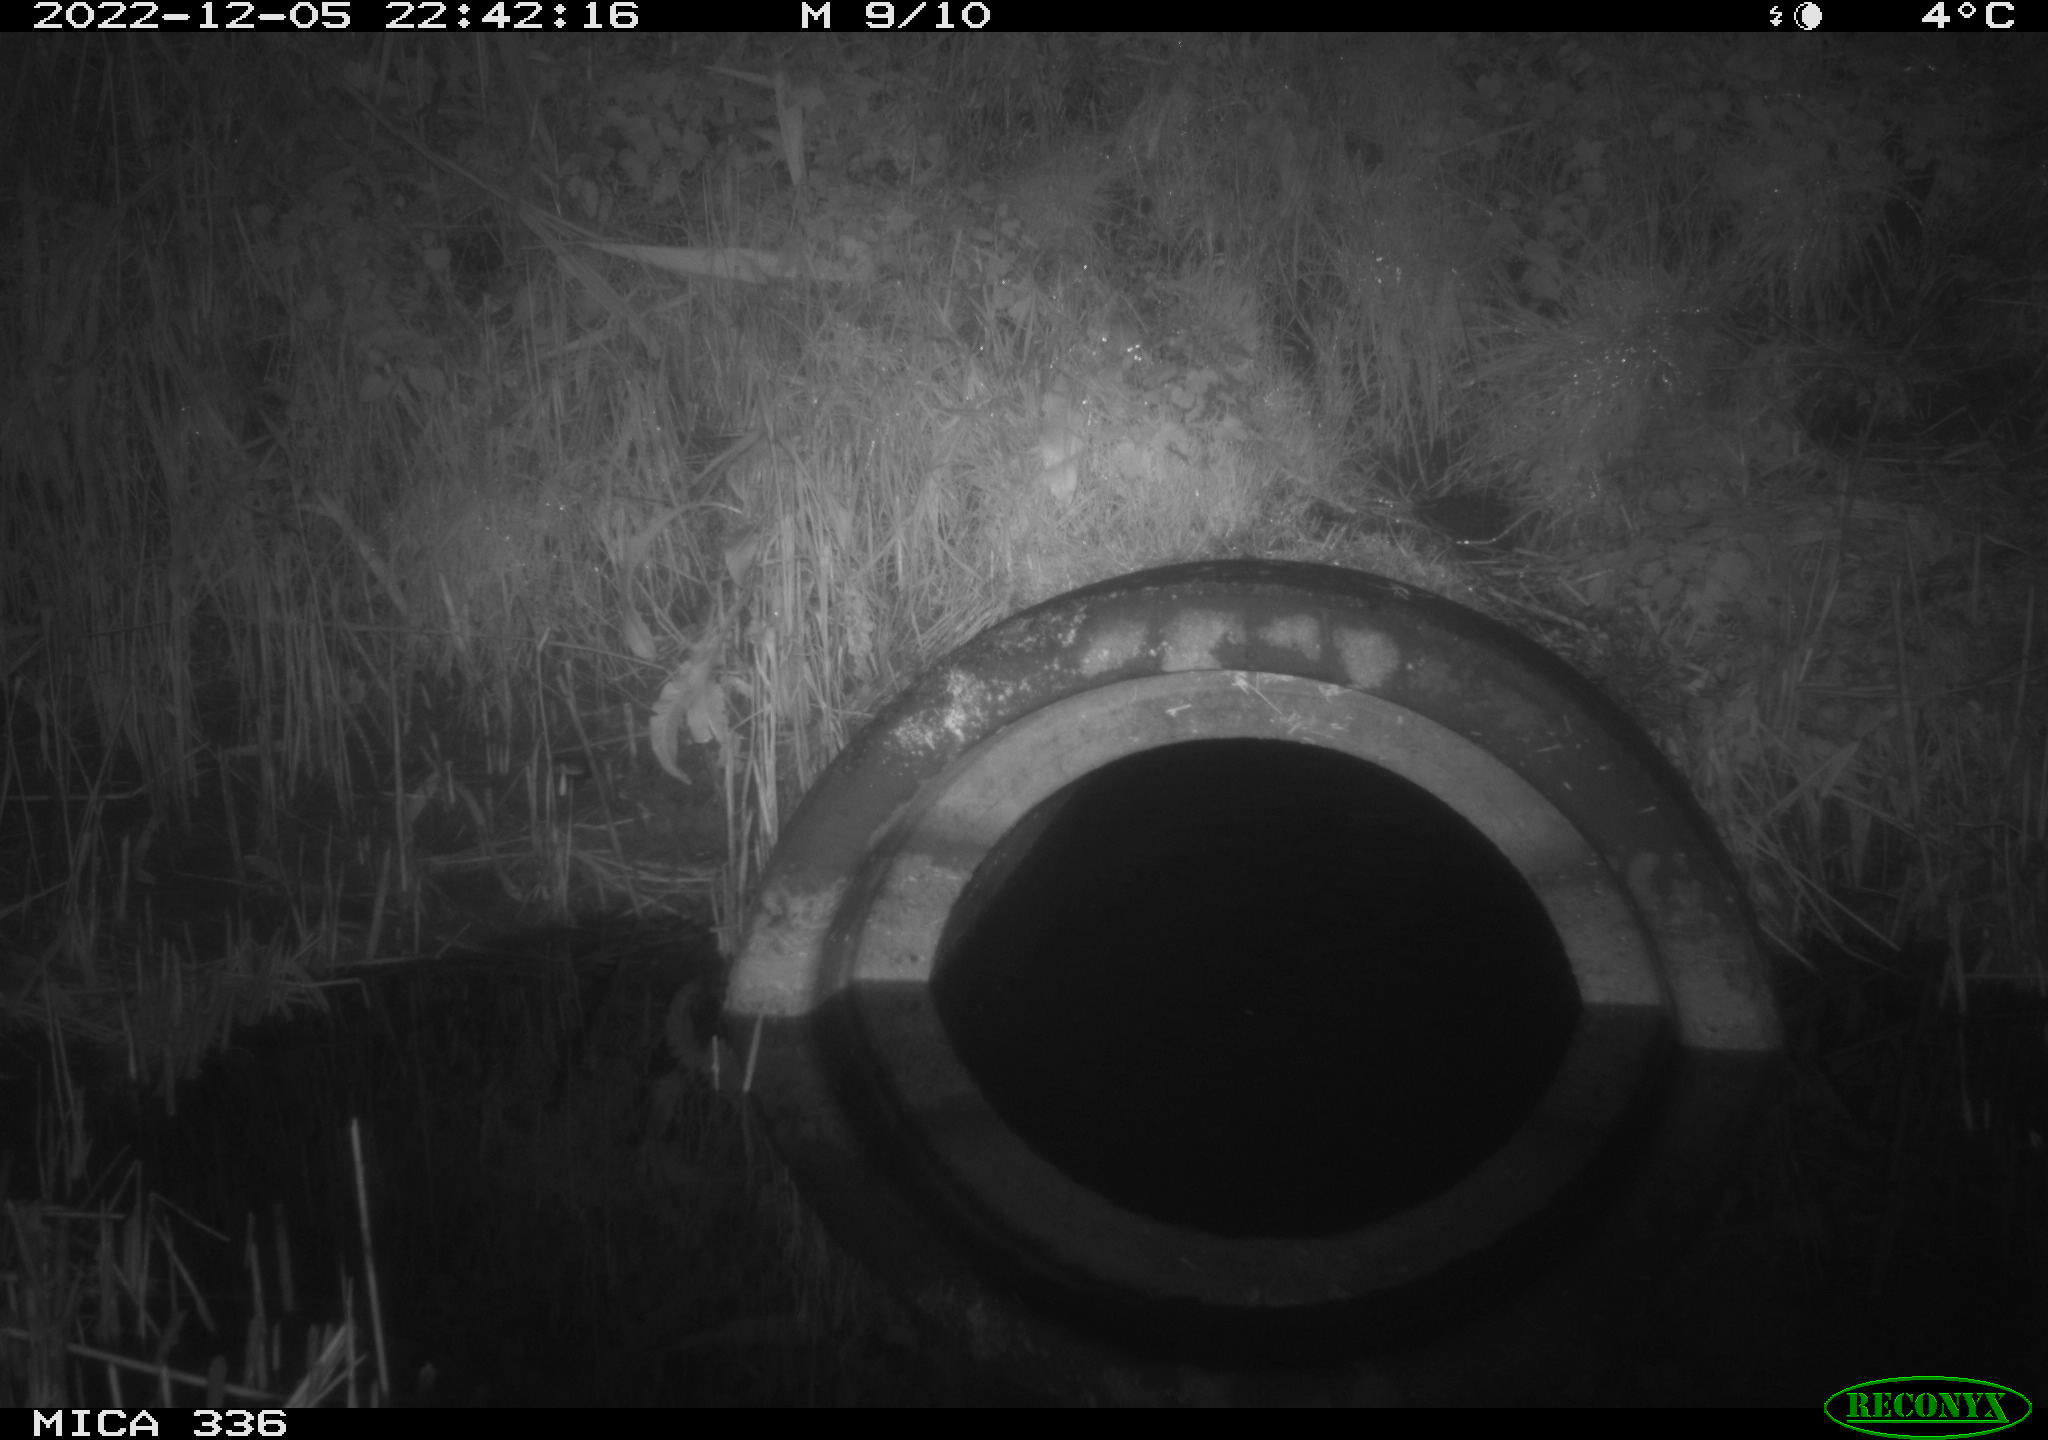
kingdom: Animalia
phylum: Chordata
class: Mammalia
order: Rodentia
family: Muridae
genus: Rattus
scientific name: Rattus norvegicus
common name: Brown rat
